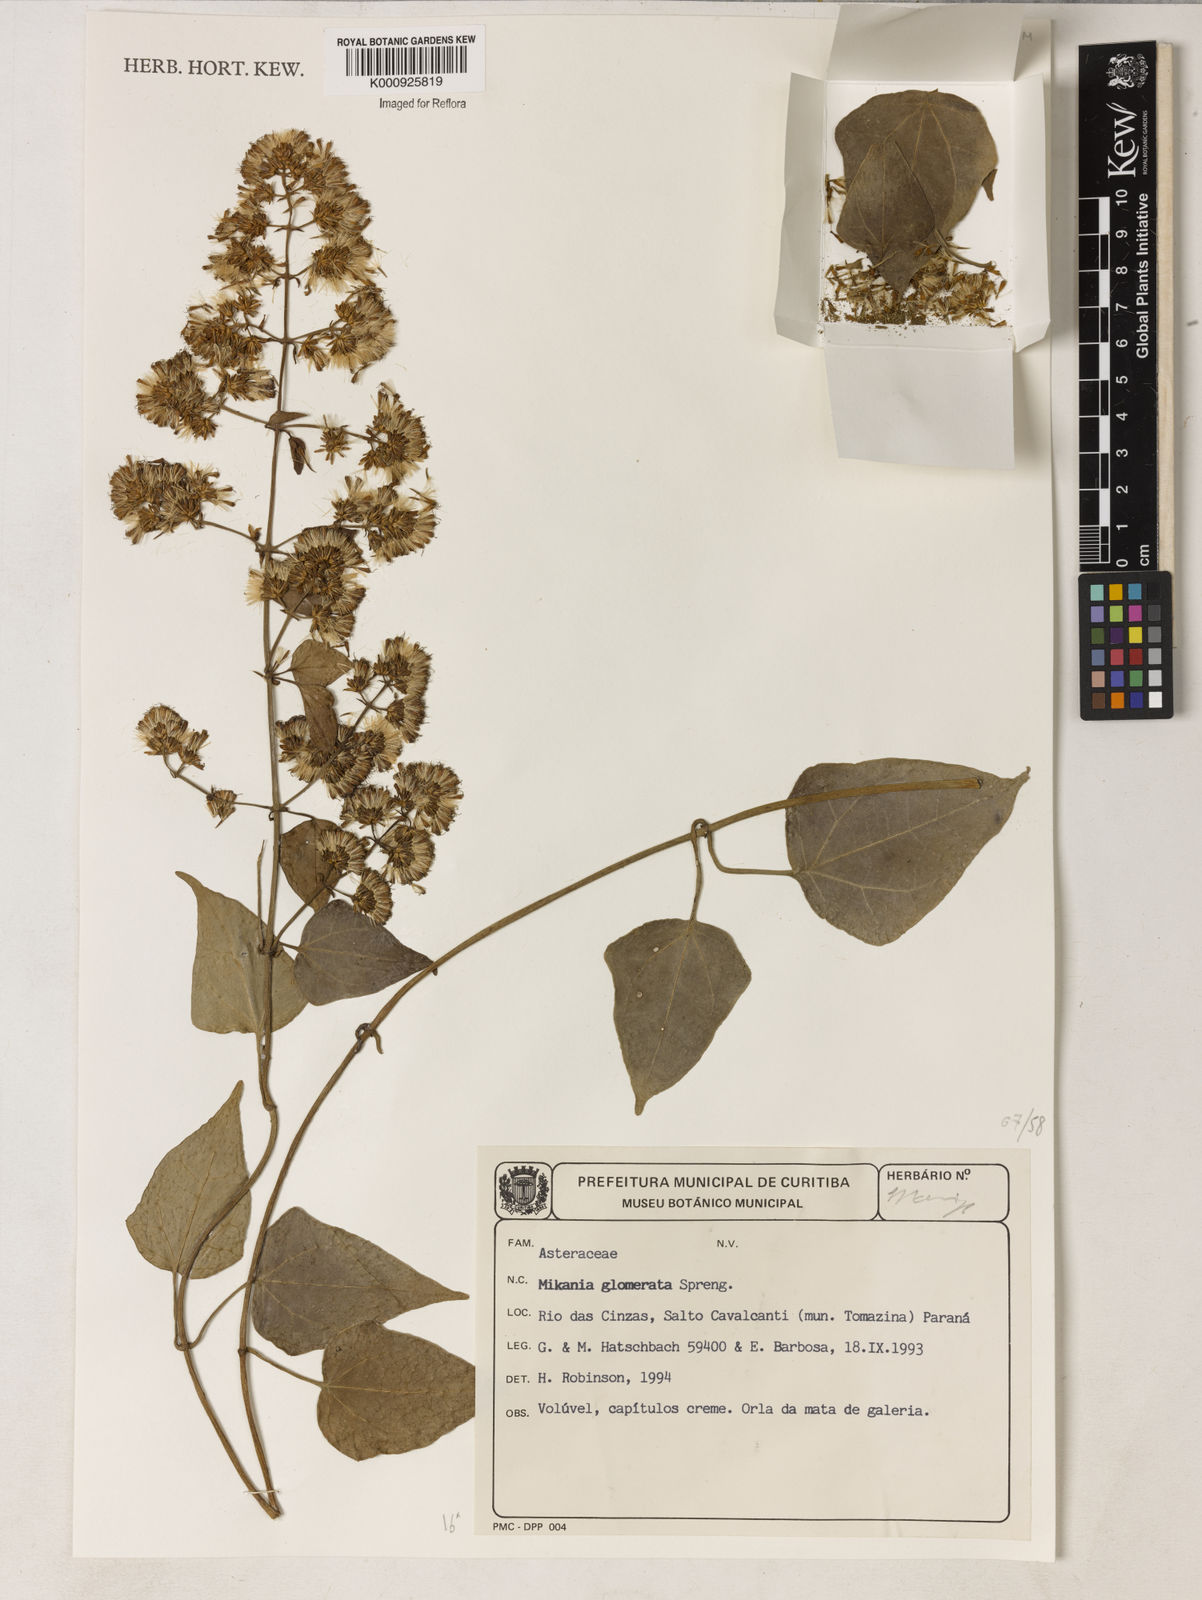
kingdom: Plantae
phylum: Tracheophyta
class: Magnoliopsida
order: Asterales
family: Asteraceae
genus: Mikania
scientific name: Mikania glomerata
